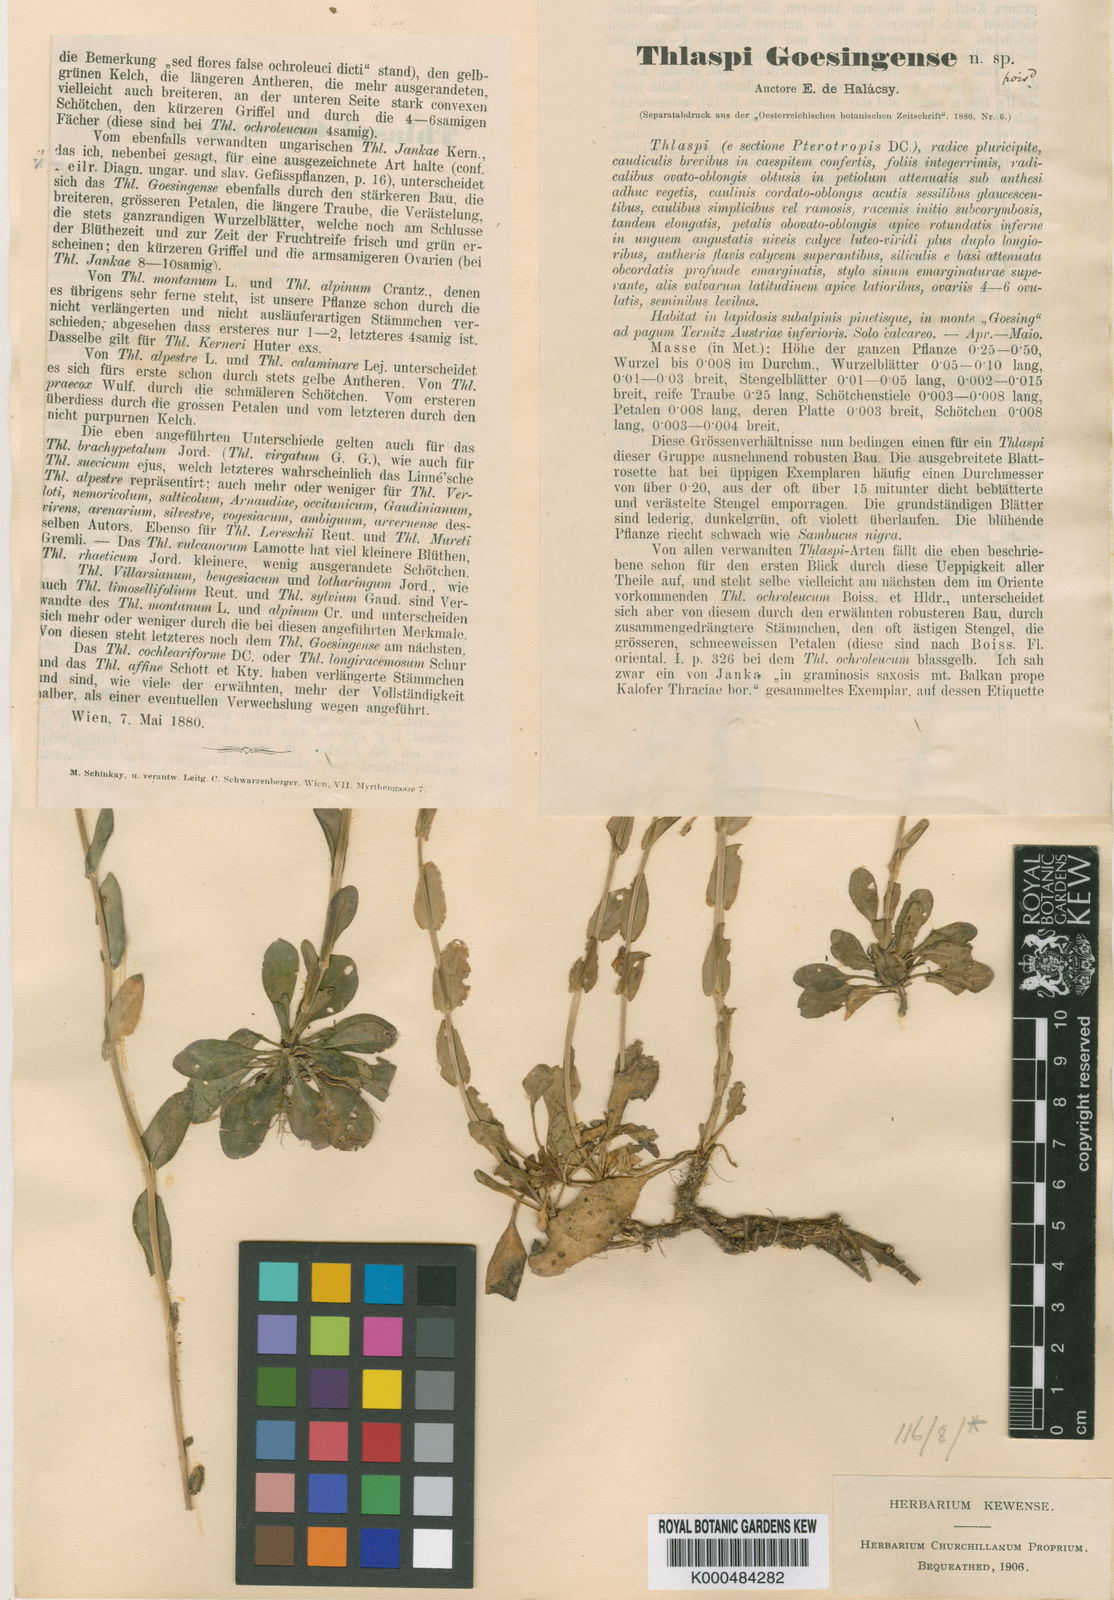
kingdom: Plantae
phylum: Tracheophyta
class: Magnoliopsida
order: Brassicales
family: Brassicaceae
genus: Noccaea
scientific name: Noccaea tymphaea
